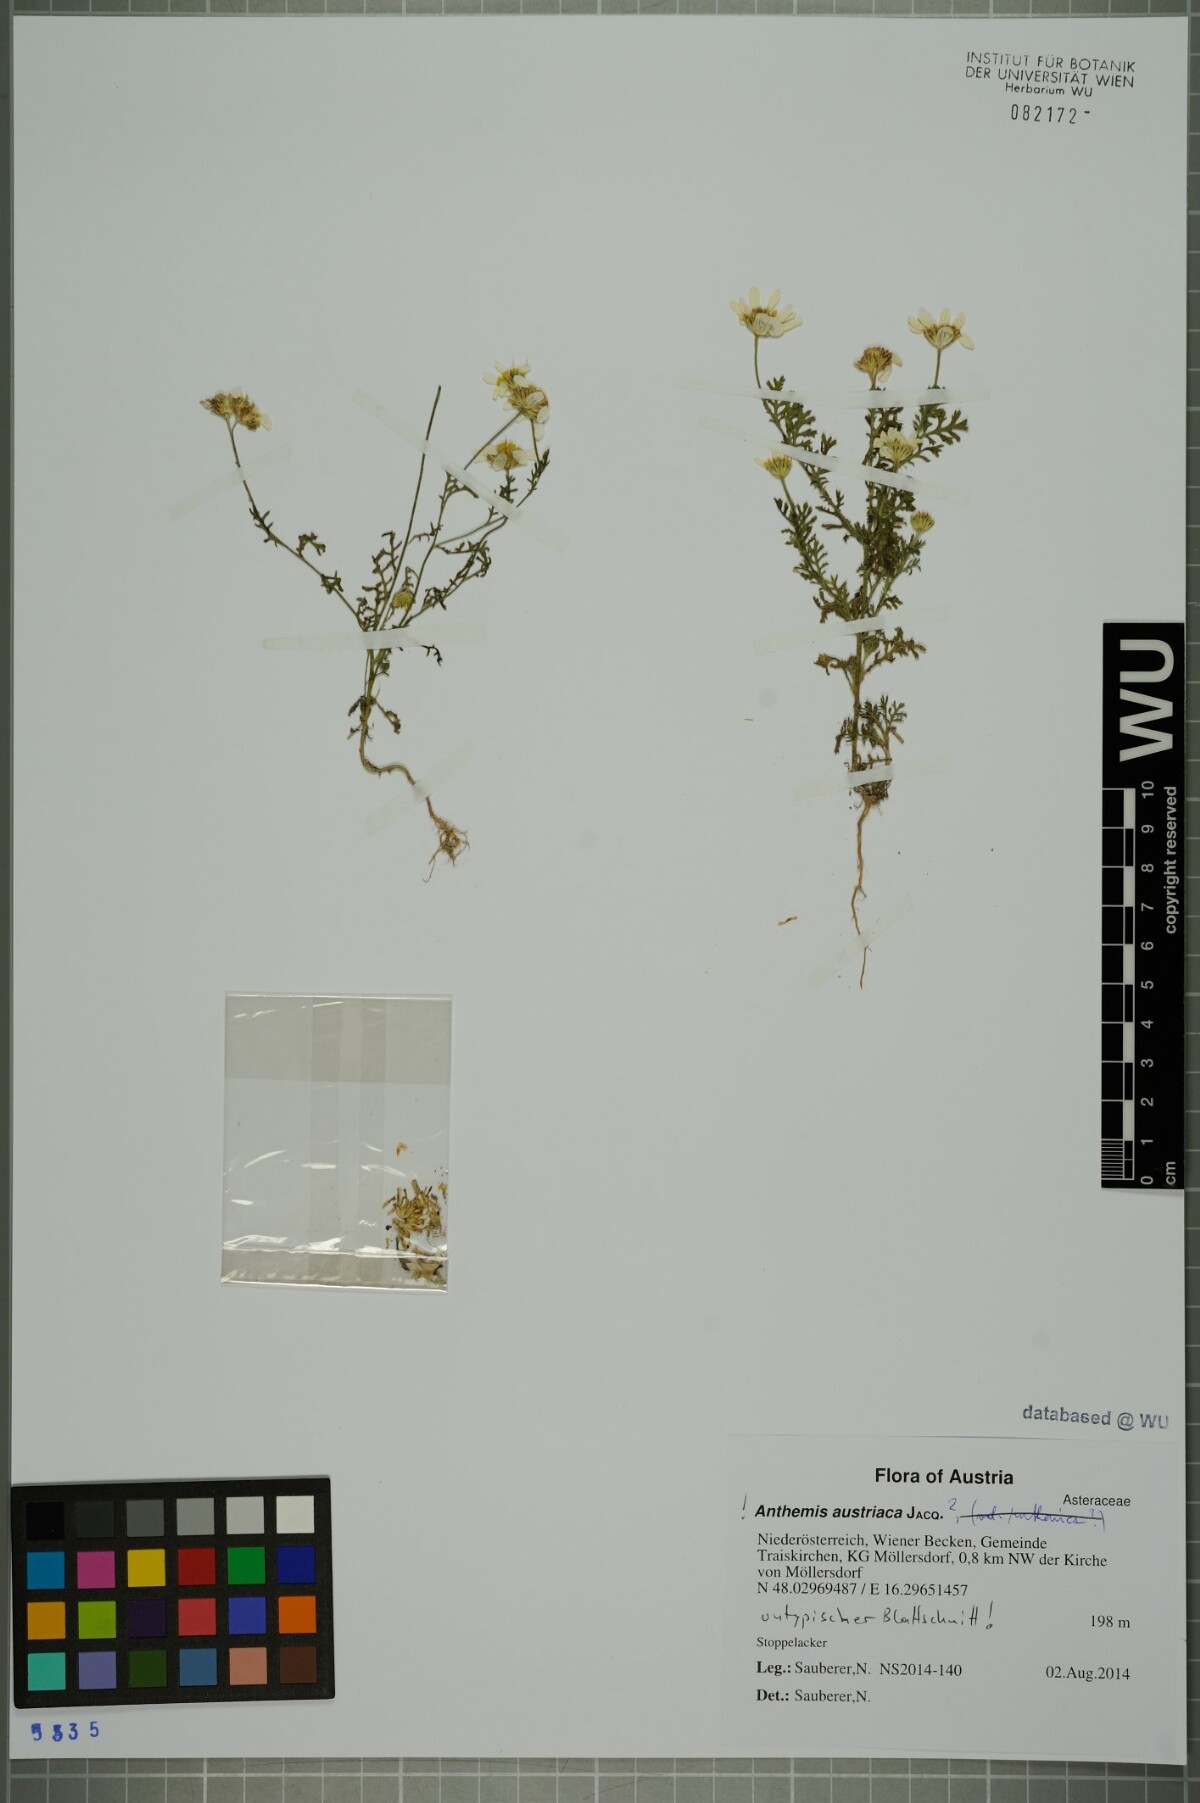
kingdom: Plantae
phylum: Tracheophyta
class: Magnoliopsida
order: Asterales
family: Asteraceae
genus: Cota
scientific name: Cota austriaca
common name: Austrian chamomile
